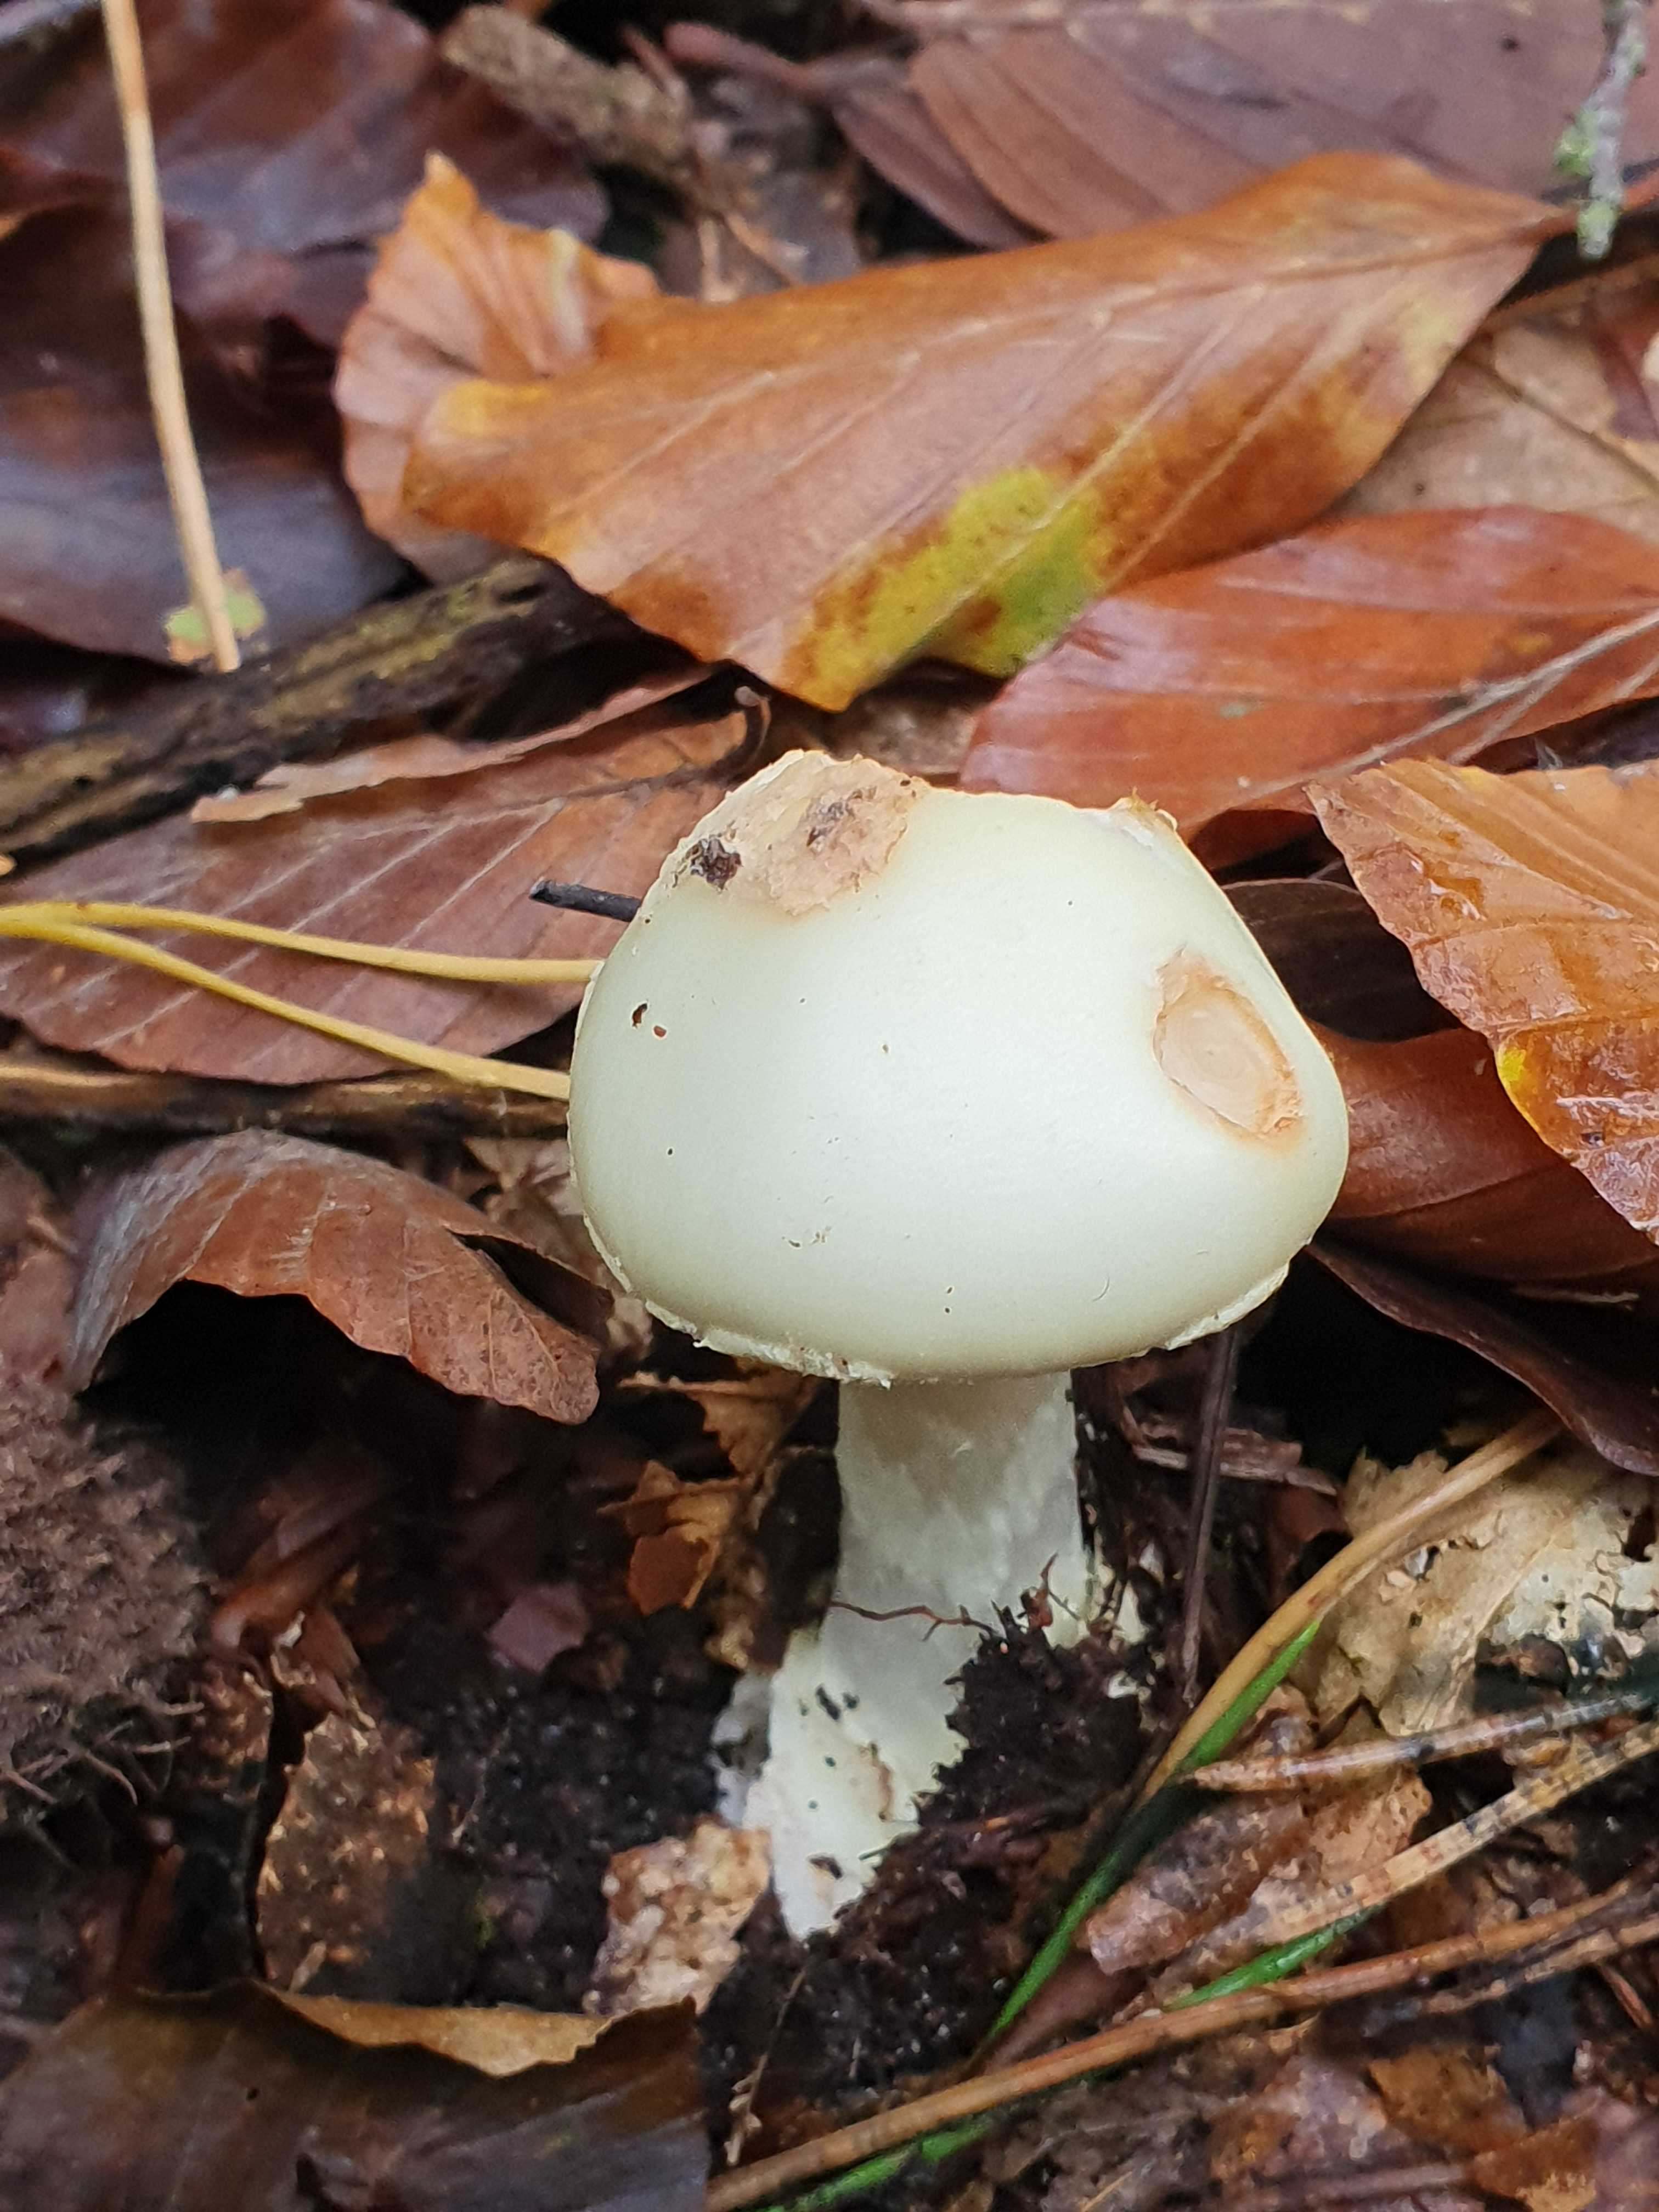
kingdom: Fungi
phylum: Basidiomycota
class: Agaricomycetes
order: Agaricales
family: Amanitaceae
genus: Amanita
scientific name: Amanita citrina
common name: kugleknoldet fluesvamp
